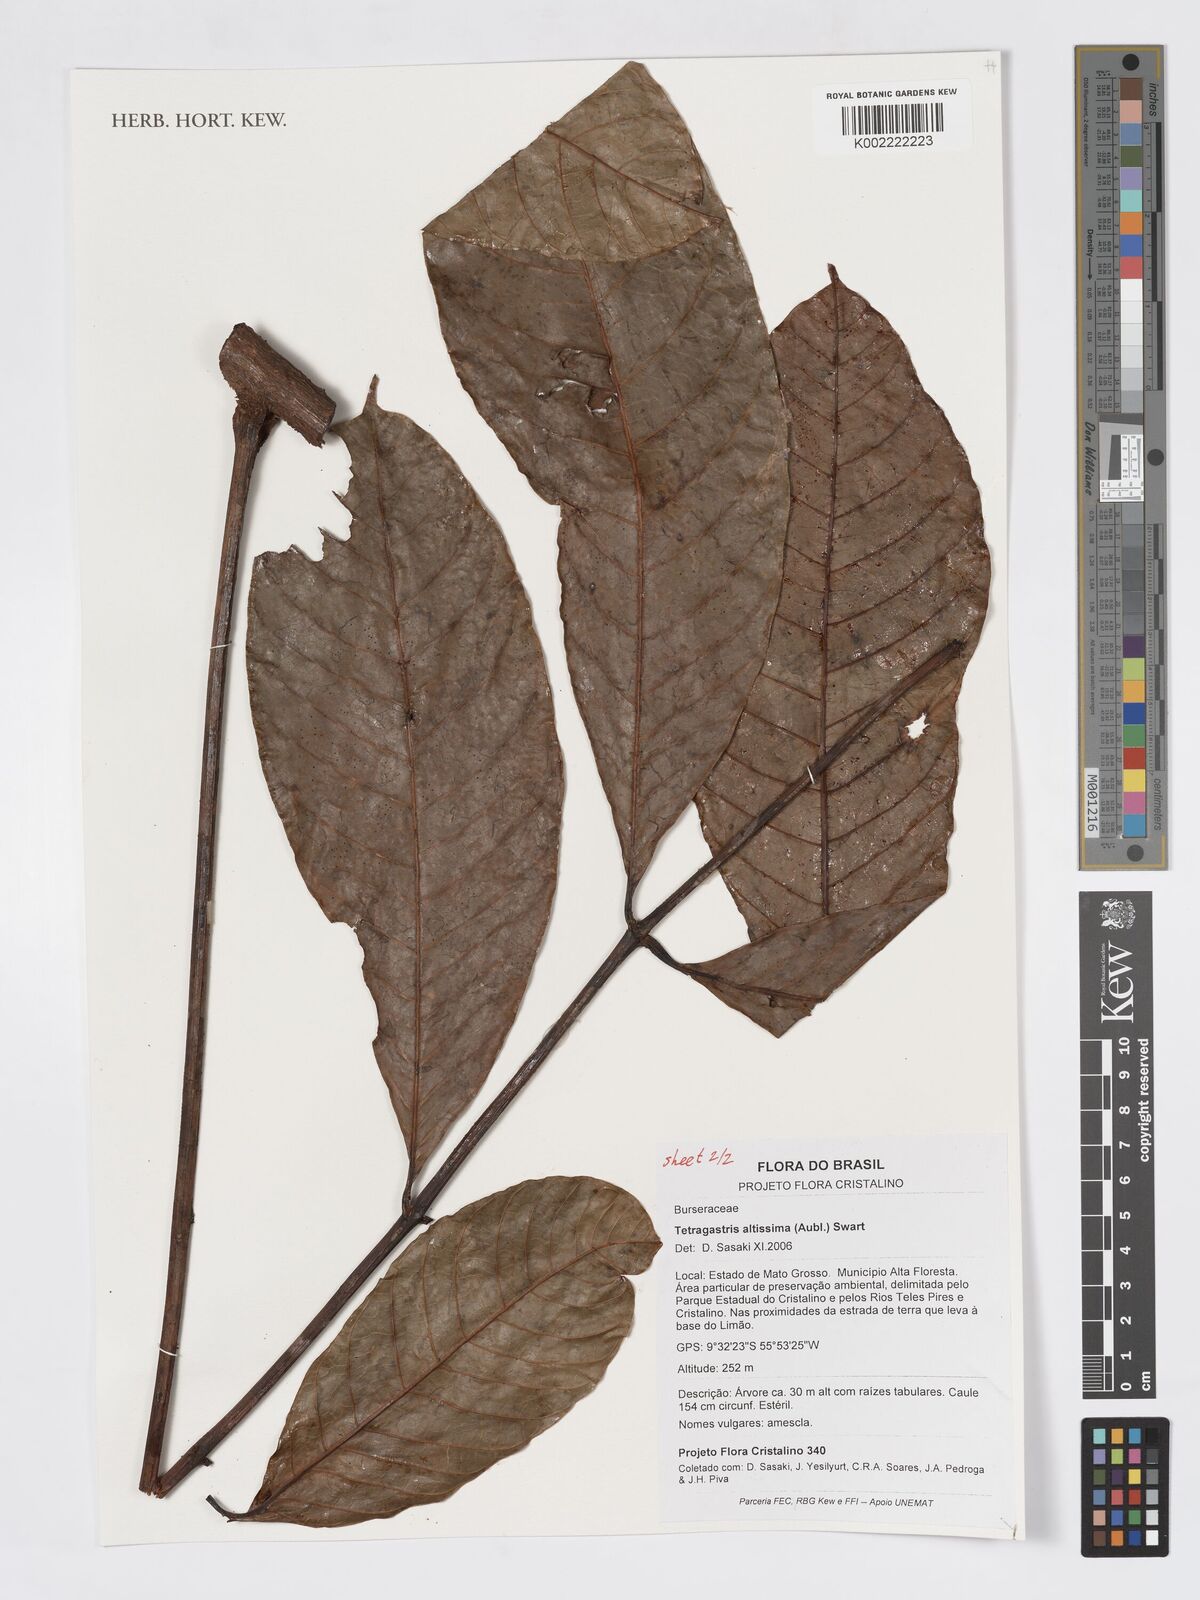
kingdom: Plantae
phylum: Tracheophyta
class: Magnoliopsida
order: Sapindales
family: Burseraceae
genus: Tetragastris
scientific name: Tetragastris altissima
